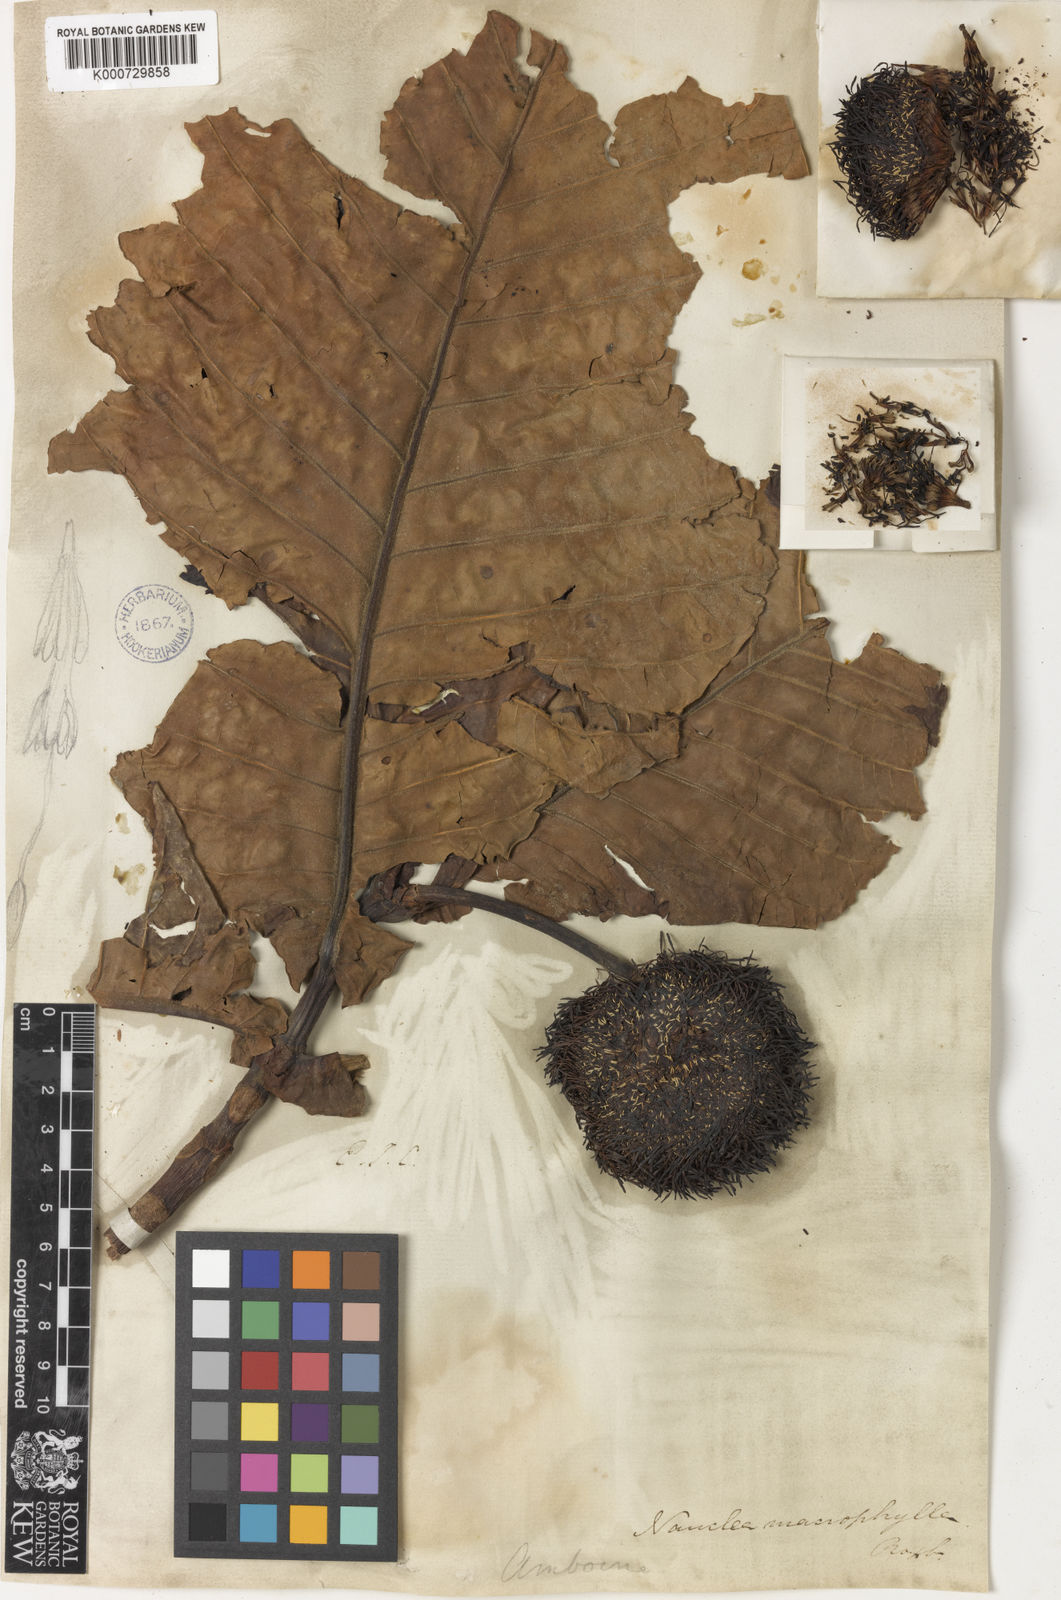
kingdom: Plantae
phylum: Tracheophyta
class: Magnoliopsida
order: Gentianales
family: Rubiaceae
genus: Neolamarckia
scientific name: Neolamarckia macrophylla
